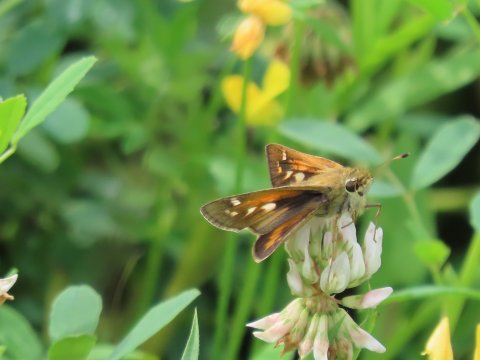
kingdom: Animalia
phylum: Arthropoda
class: Insecta
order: Lepidoptera
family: Hesperiidae
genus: Atalopedes
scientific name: Atalopedes campestris
